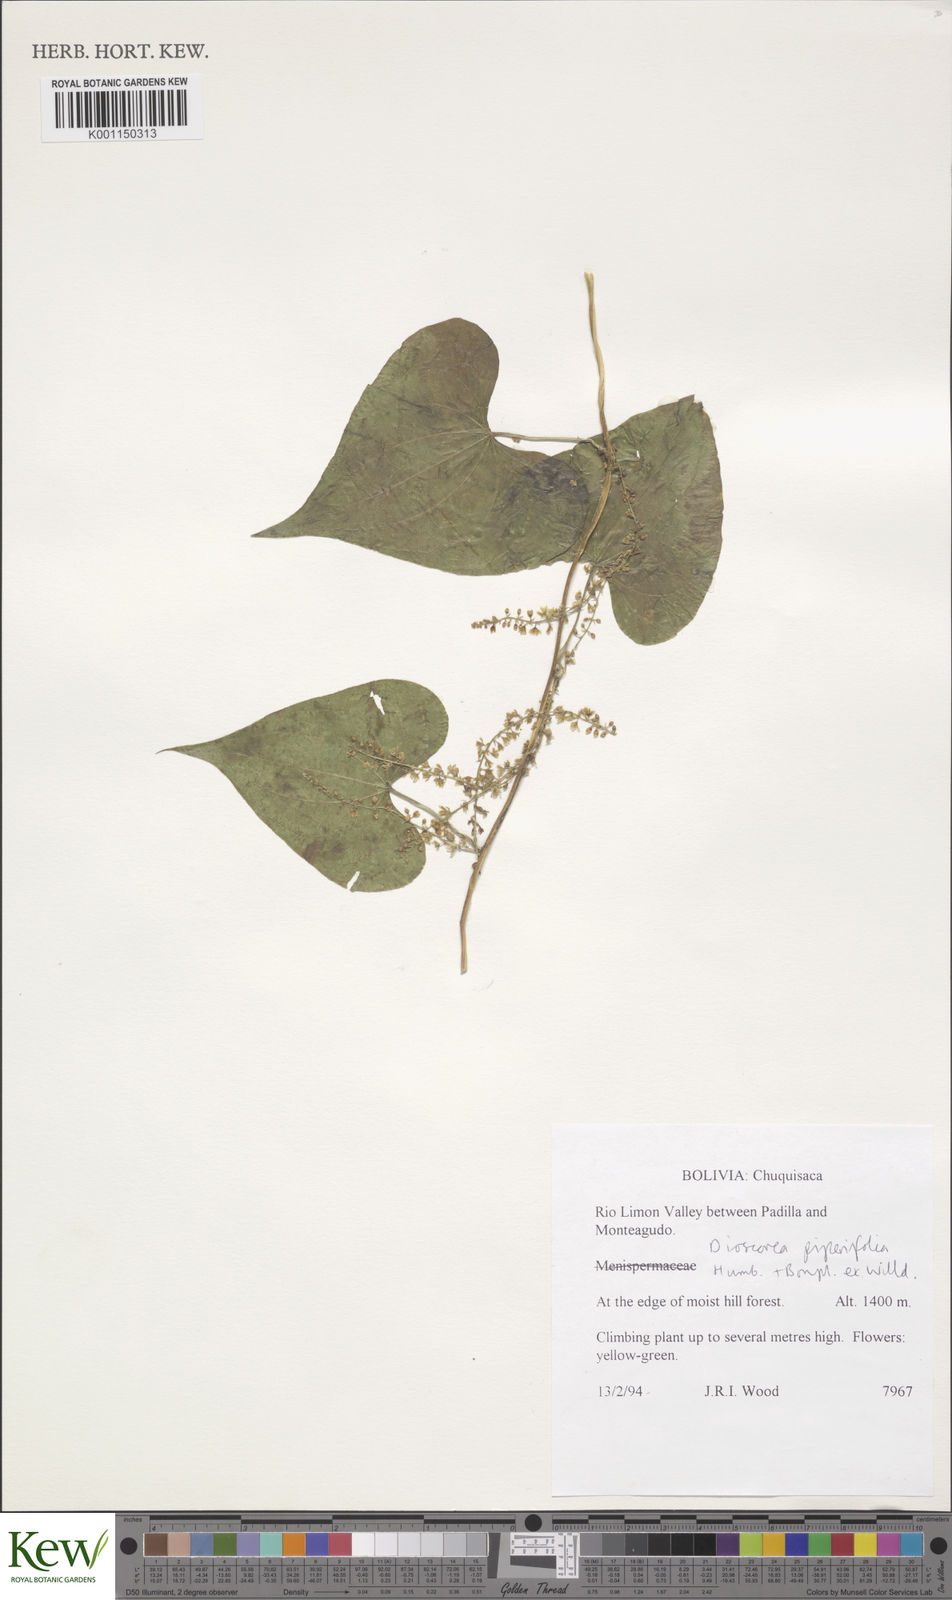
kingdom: Plantae
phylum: Tracheophyta
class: Liliopsida
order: Dioscoreales
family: Dioscoreaceae
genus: Dioscorea
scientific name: Dioscorea piperifolia
